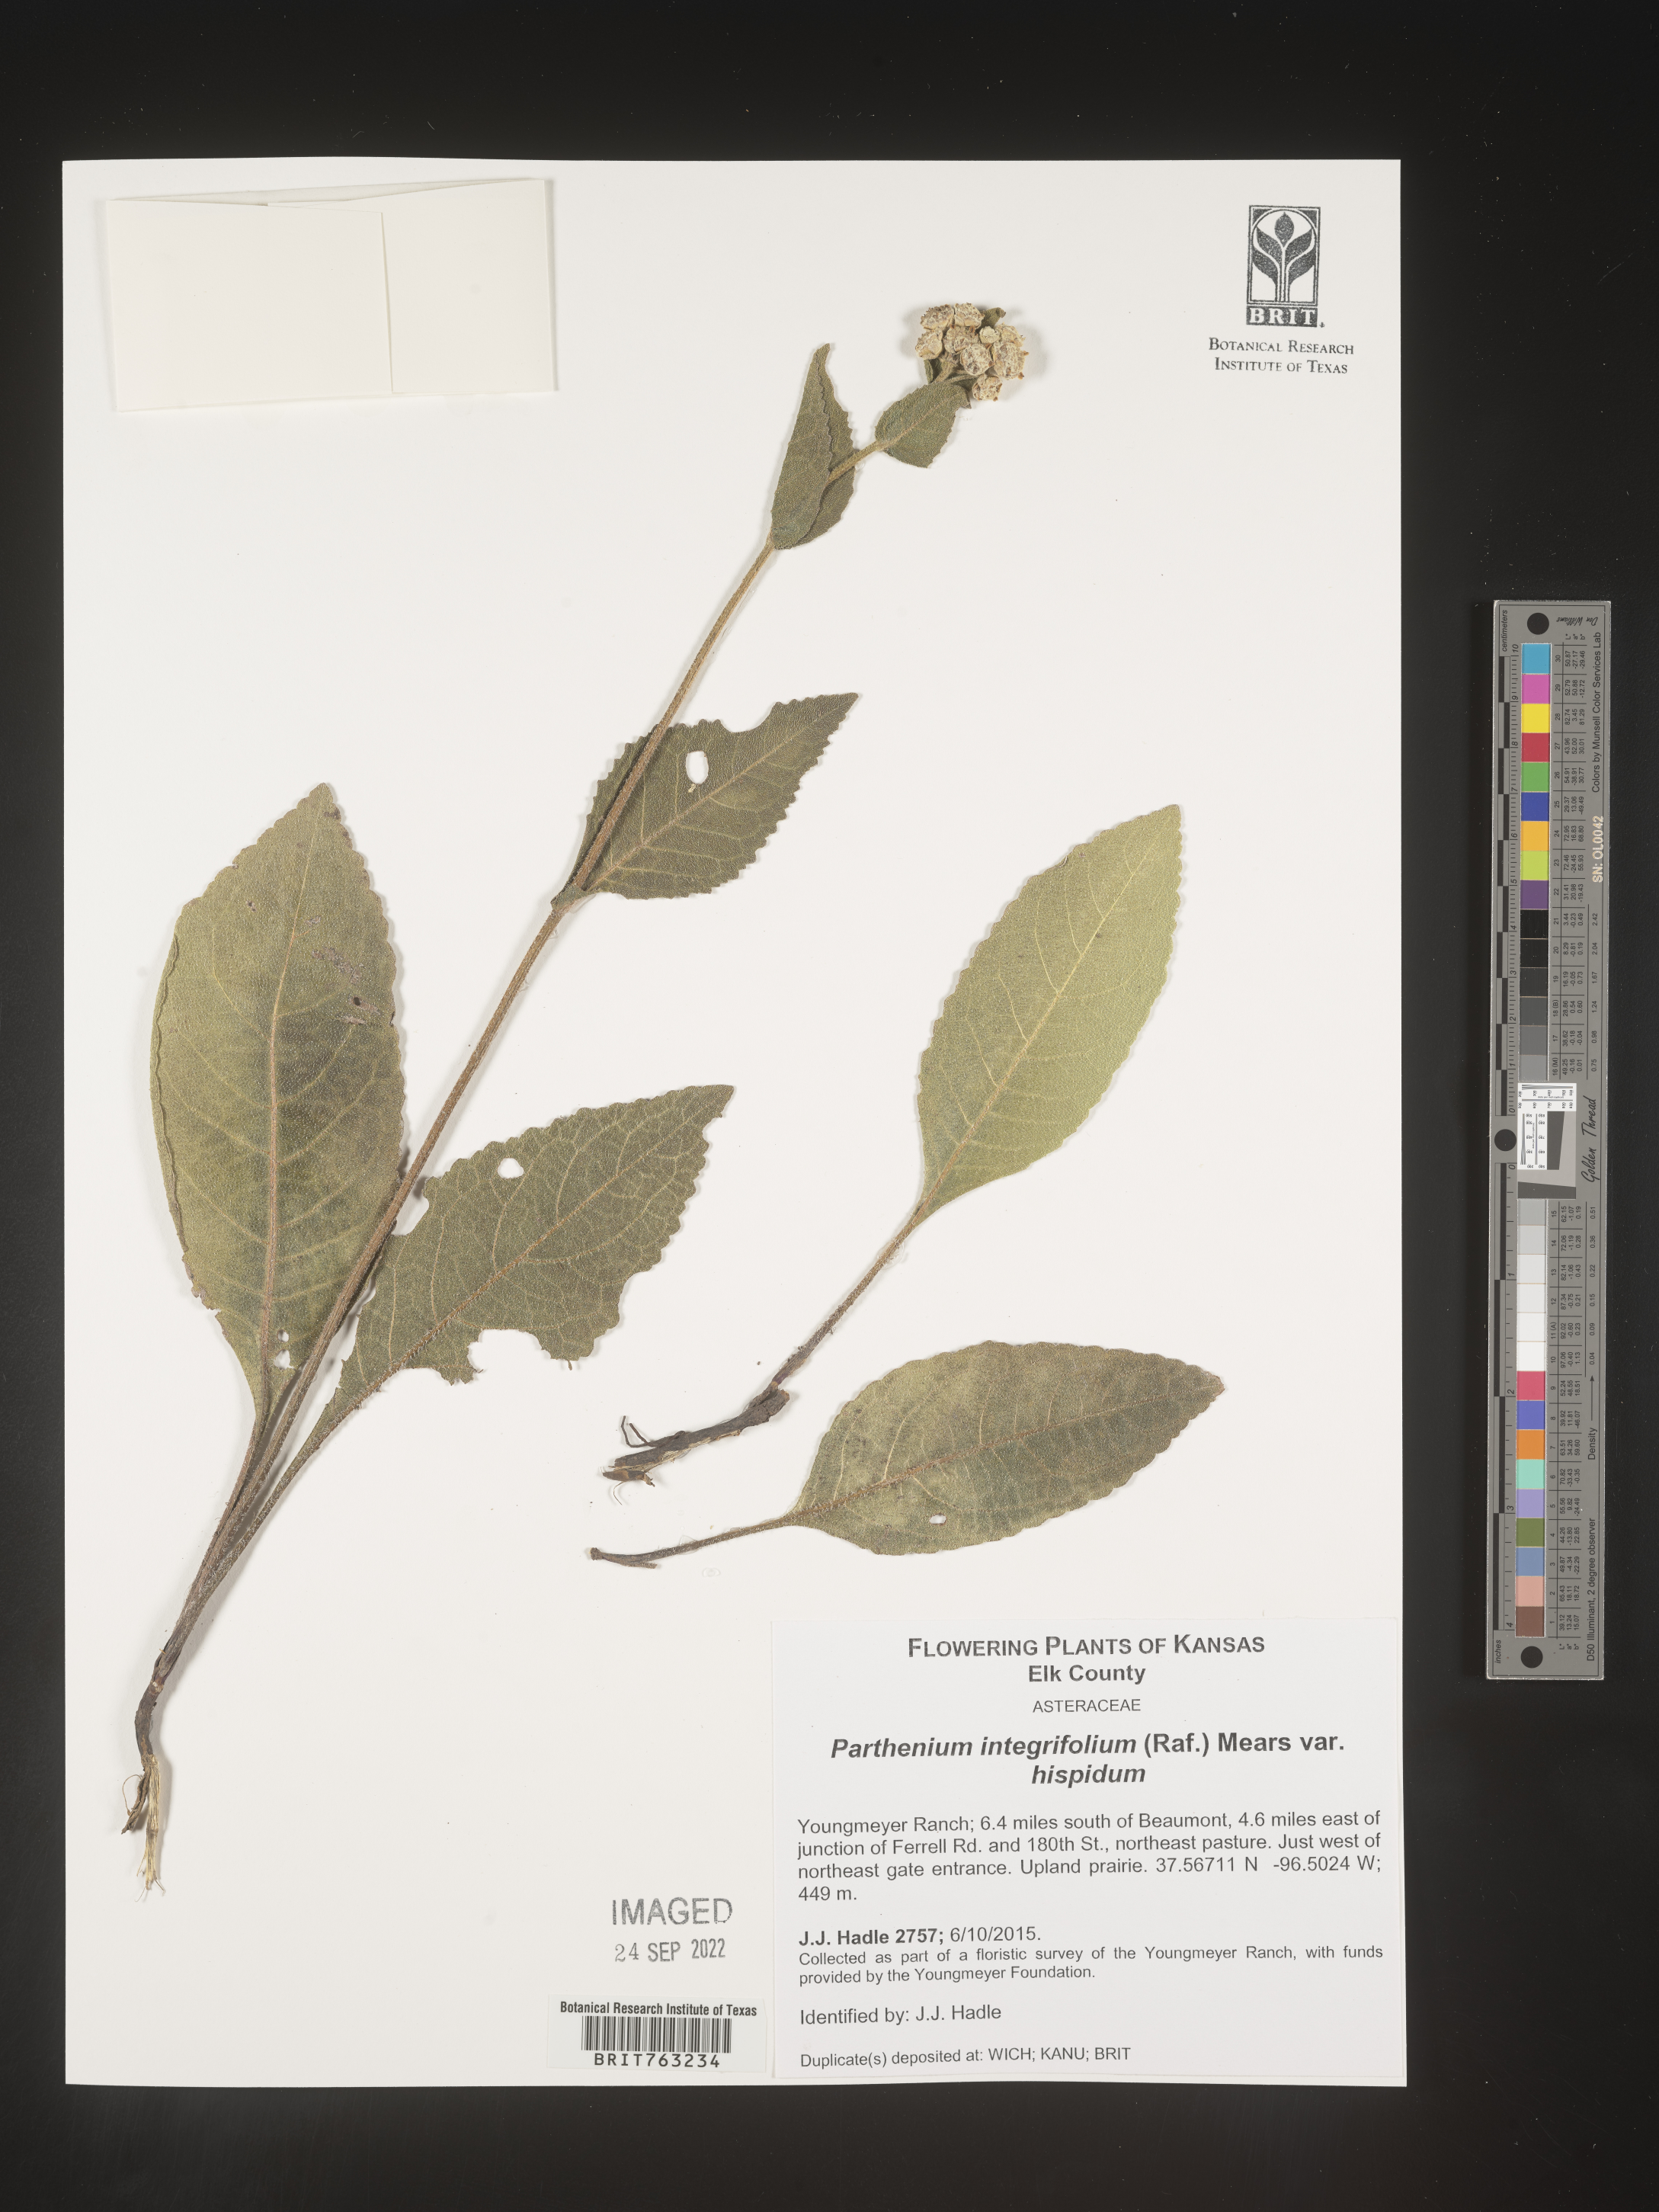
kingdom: Plantae
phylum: Tracheophyta
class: Magnoliopsida
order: Asterales
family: Asteraceae
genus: Parthenium
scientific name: Parthenium hispidum
